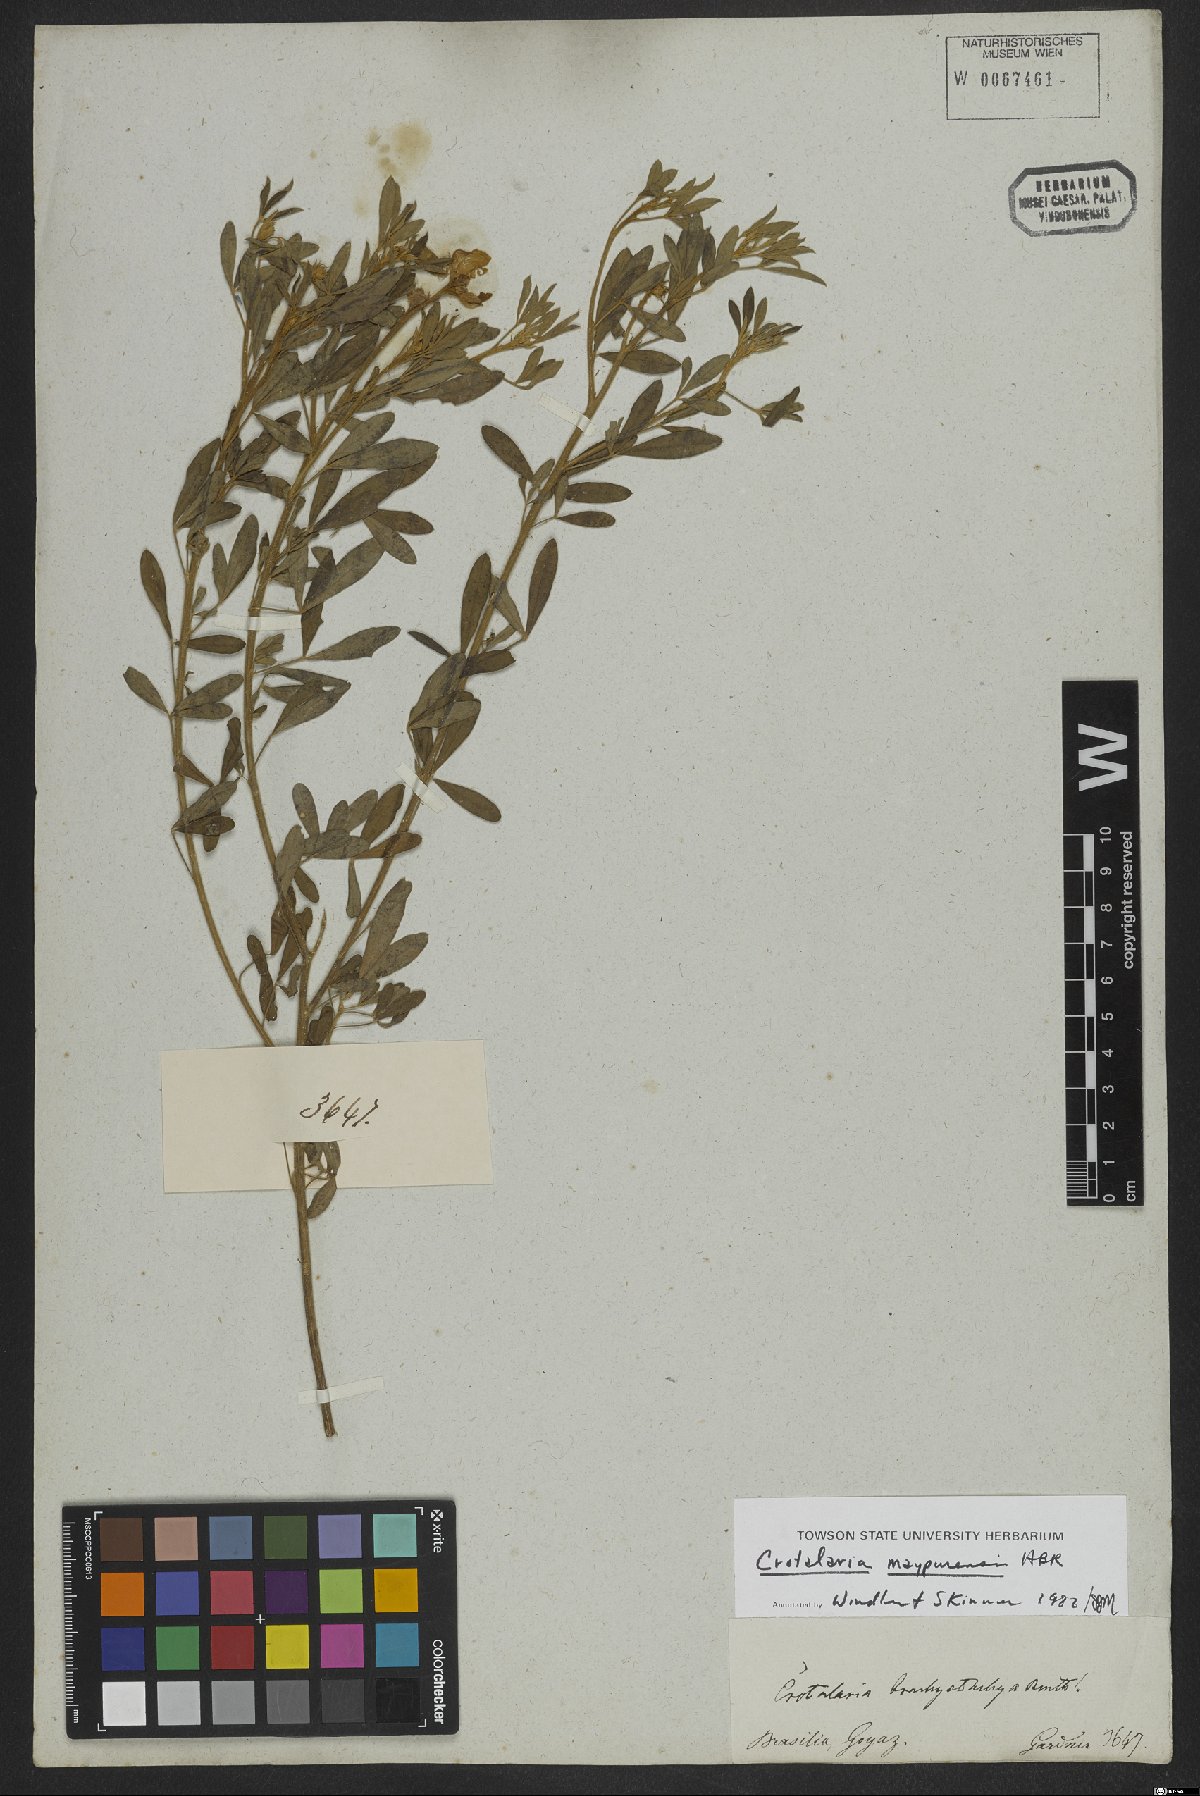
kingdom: Plantae
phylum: Tracheophyta
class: Magnoliopsida
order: Fabales
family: Fabaceae
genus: Crotalaria
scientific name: Crotalaria maypurensis
